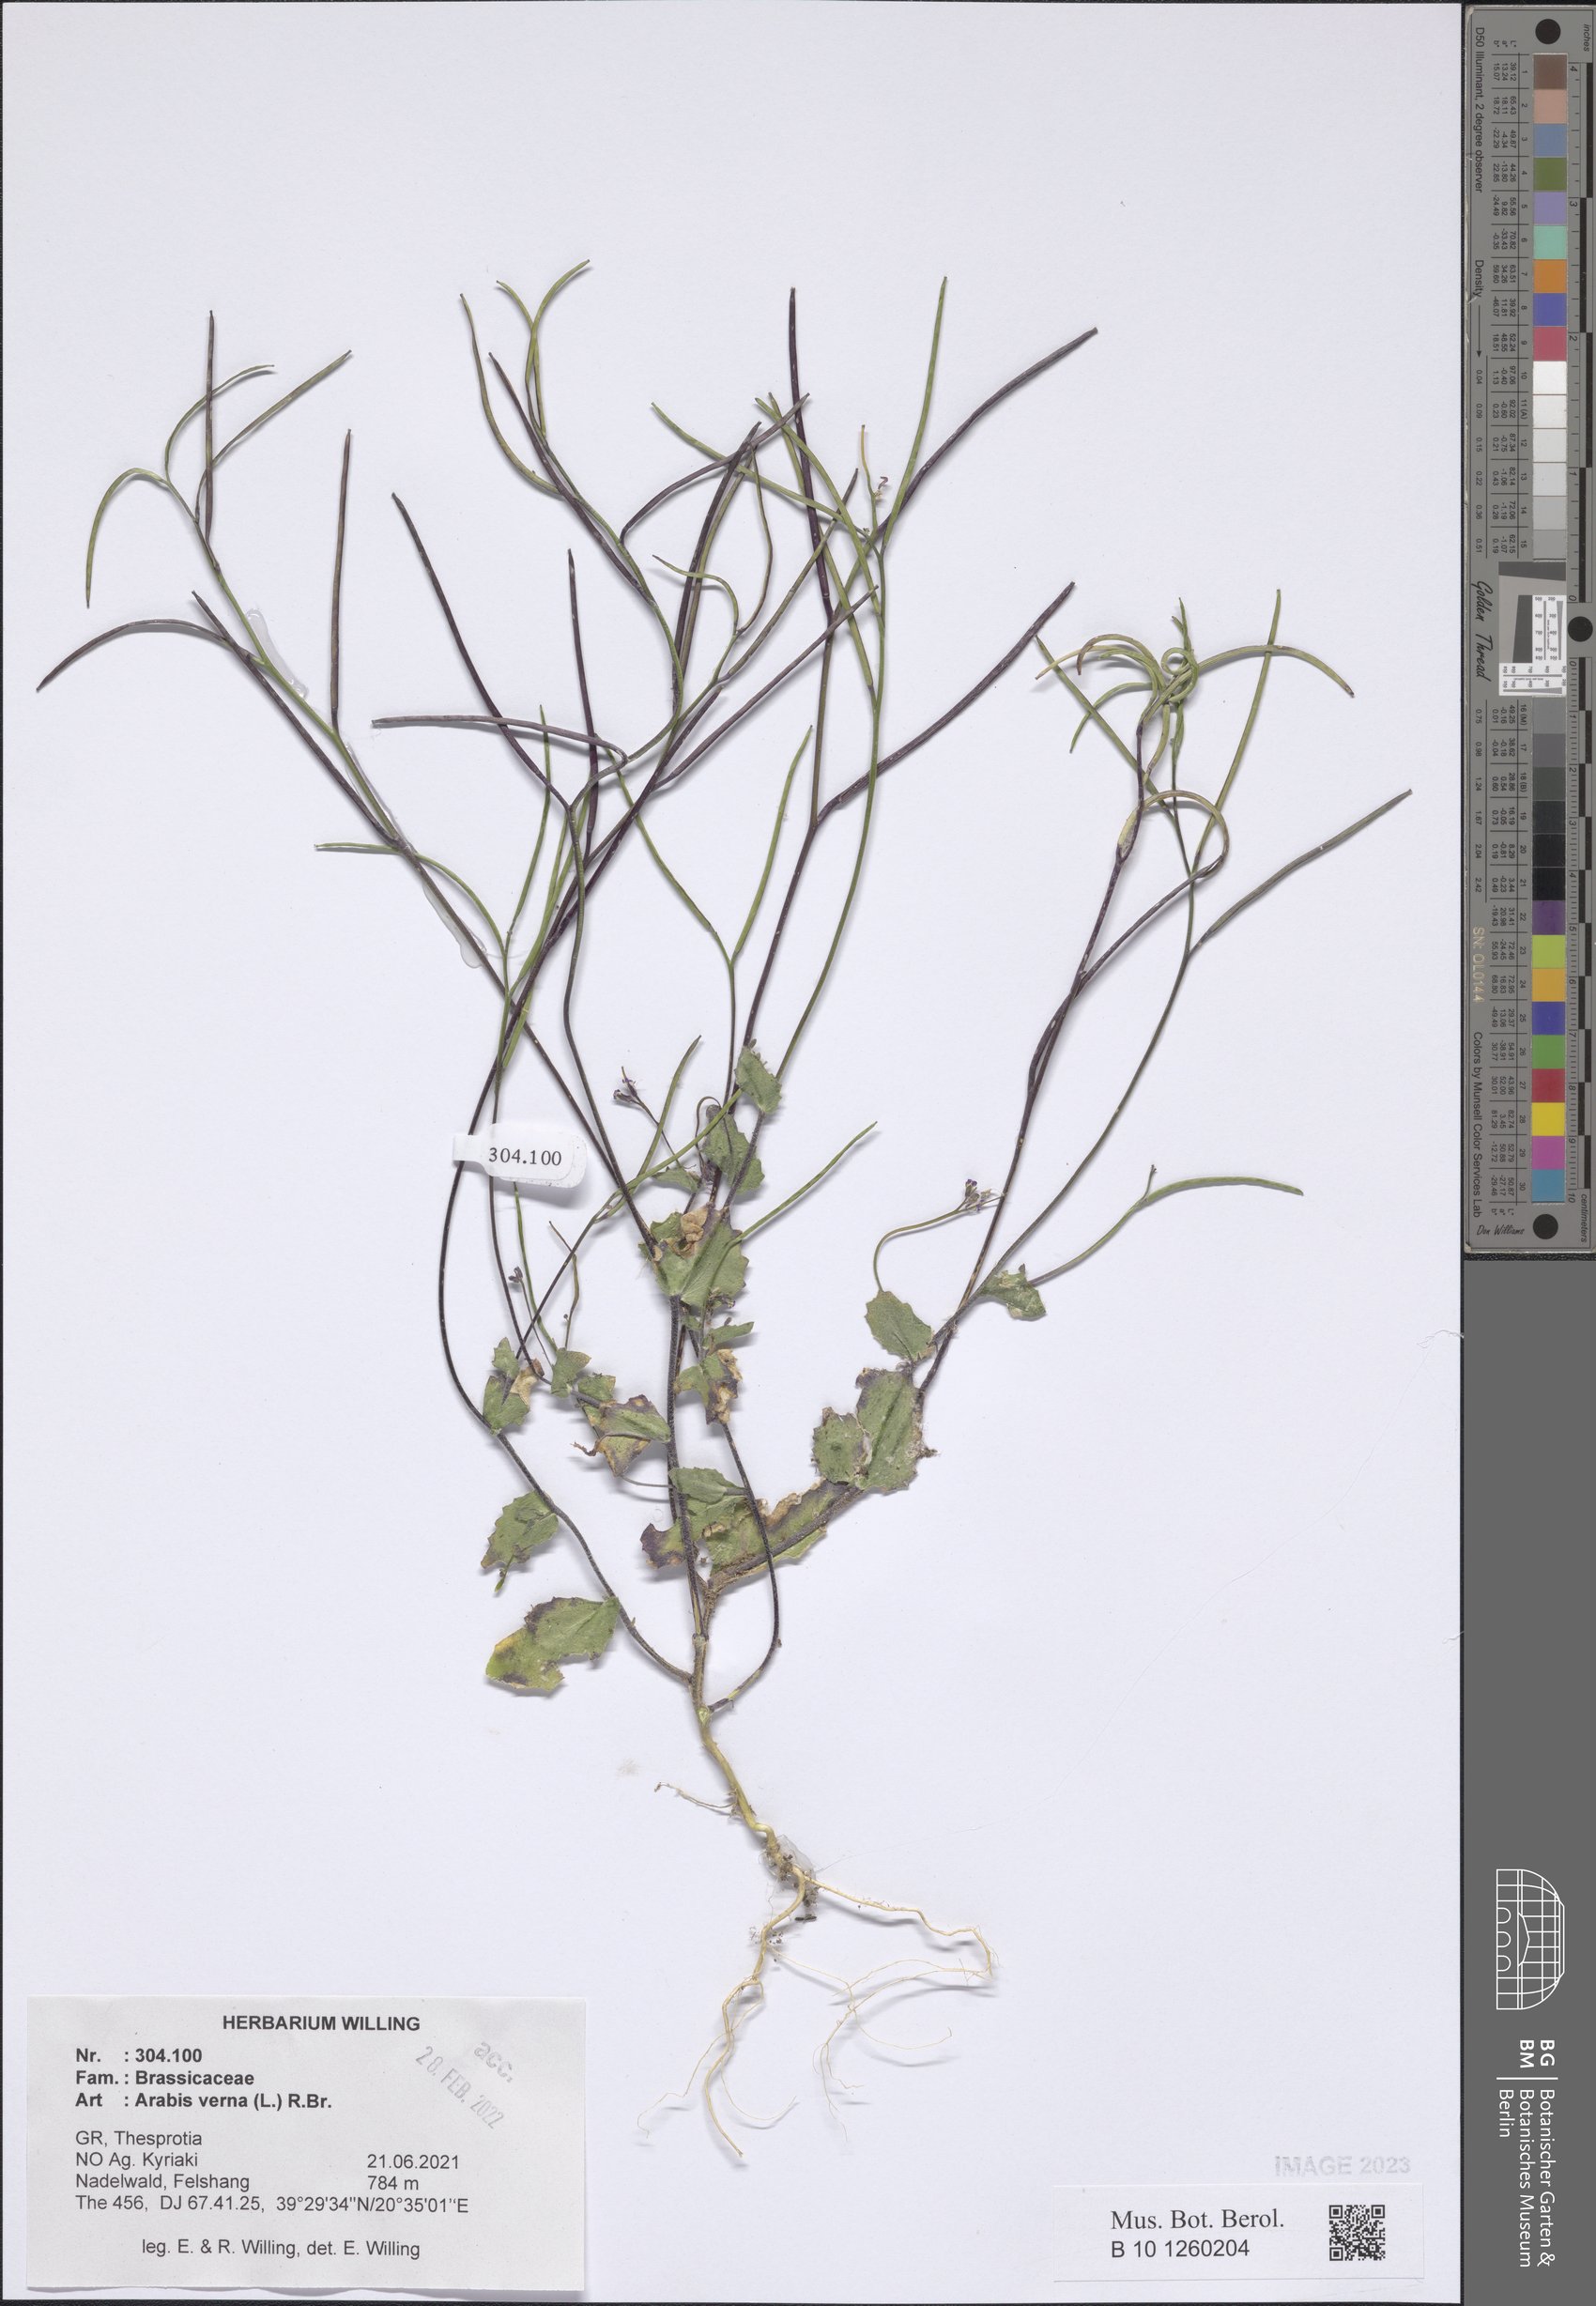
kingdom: Plantae
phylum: Tracheophyta
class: Magnoliopsida
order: Brassicales
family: Brassicaceae
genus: Arabis
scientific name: Arabis verna
